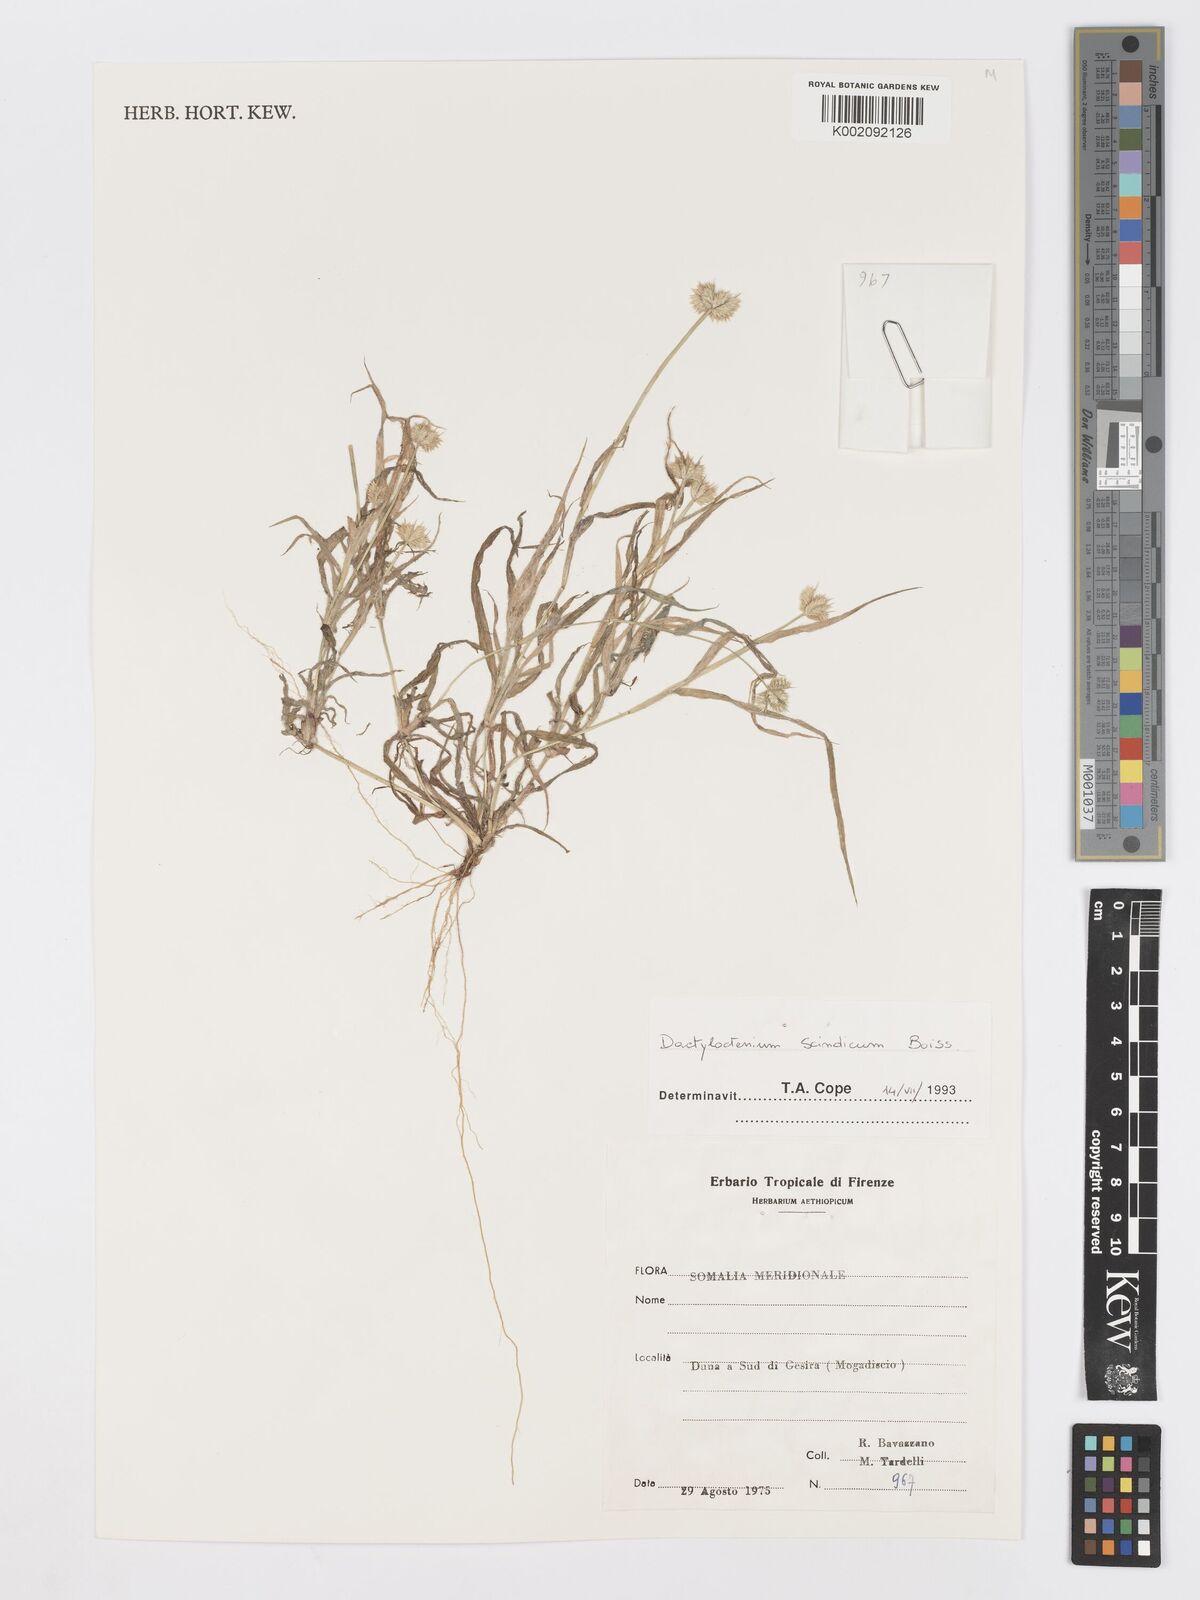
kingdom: Plantae
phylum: Tracheophyta
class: Liliopsida
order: Poales
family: Poaceae
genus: Dactyloctenium
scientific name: Dactyloctenium scindicum
